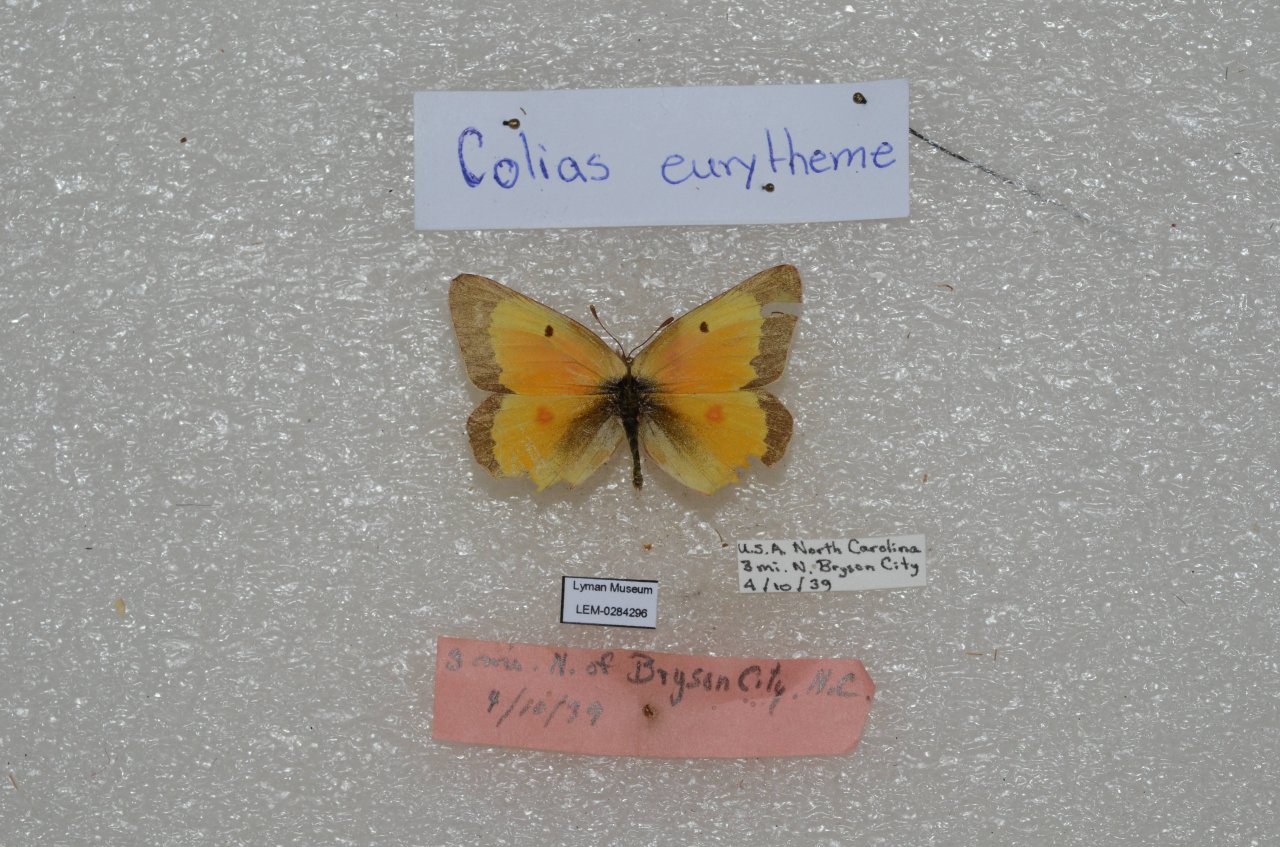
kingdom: Animalia
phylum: Arthropoda
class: Insecta
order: Lepidoptera
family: Pieridae
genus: Colias
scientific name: Colias eurytheme
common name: Orange Sulphur
